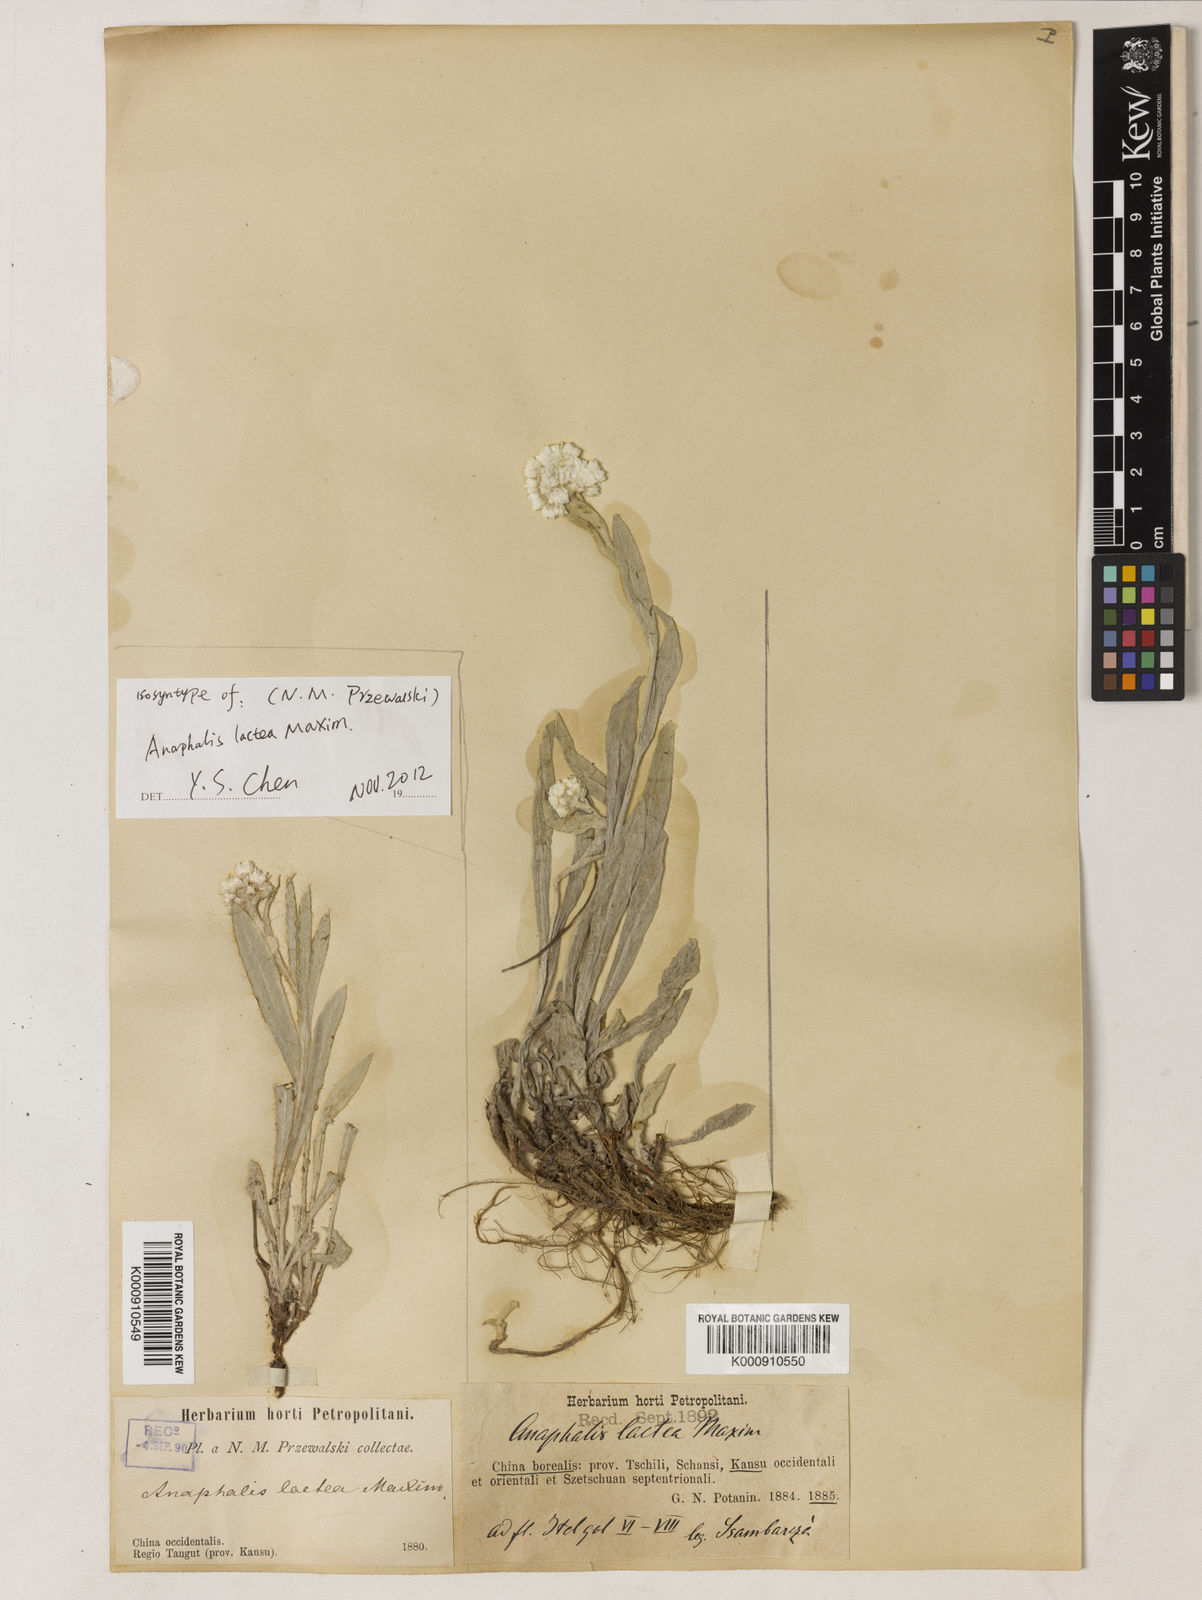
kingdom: Plantae
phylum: Tracheophyta
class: Magnoliopsida
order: Asterales
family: Asteraceae
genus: Anaphalis
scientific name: Anaphalis lactea
